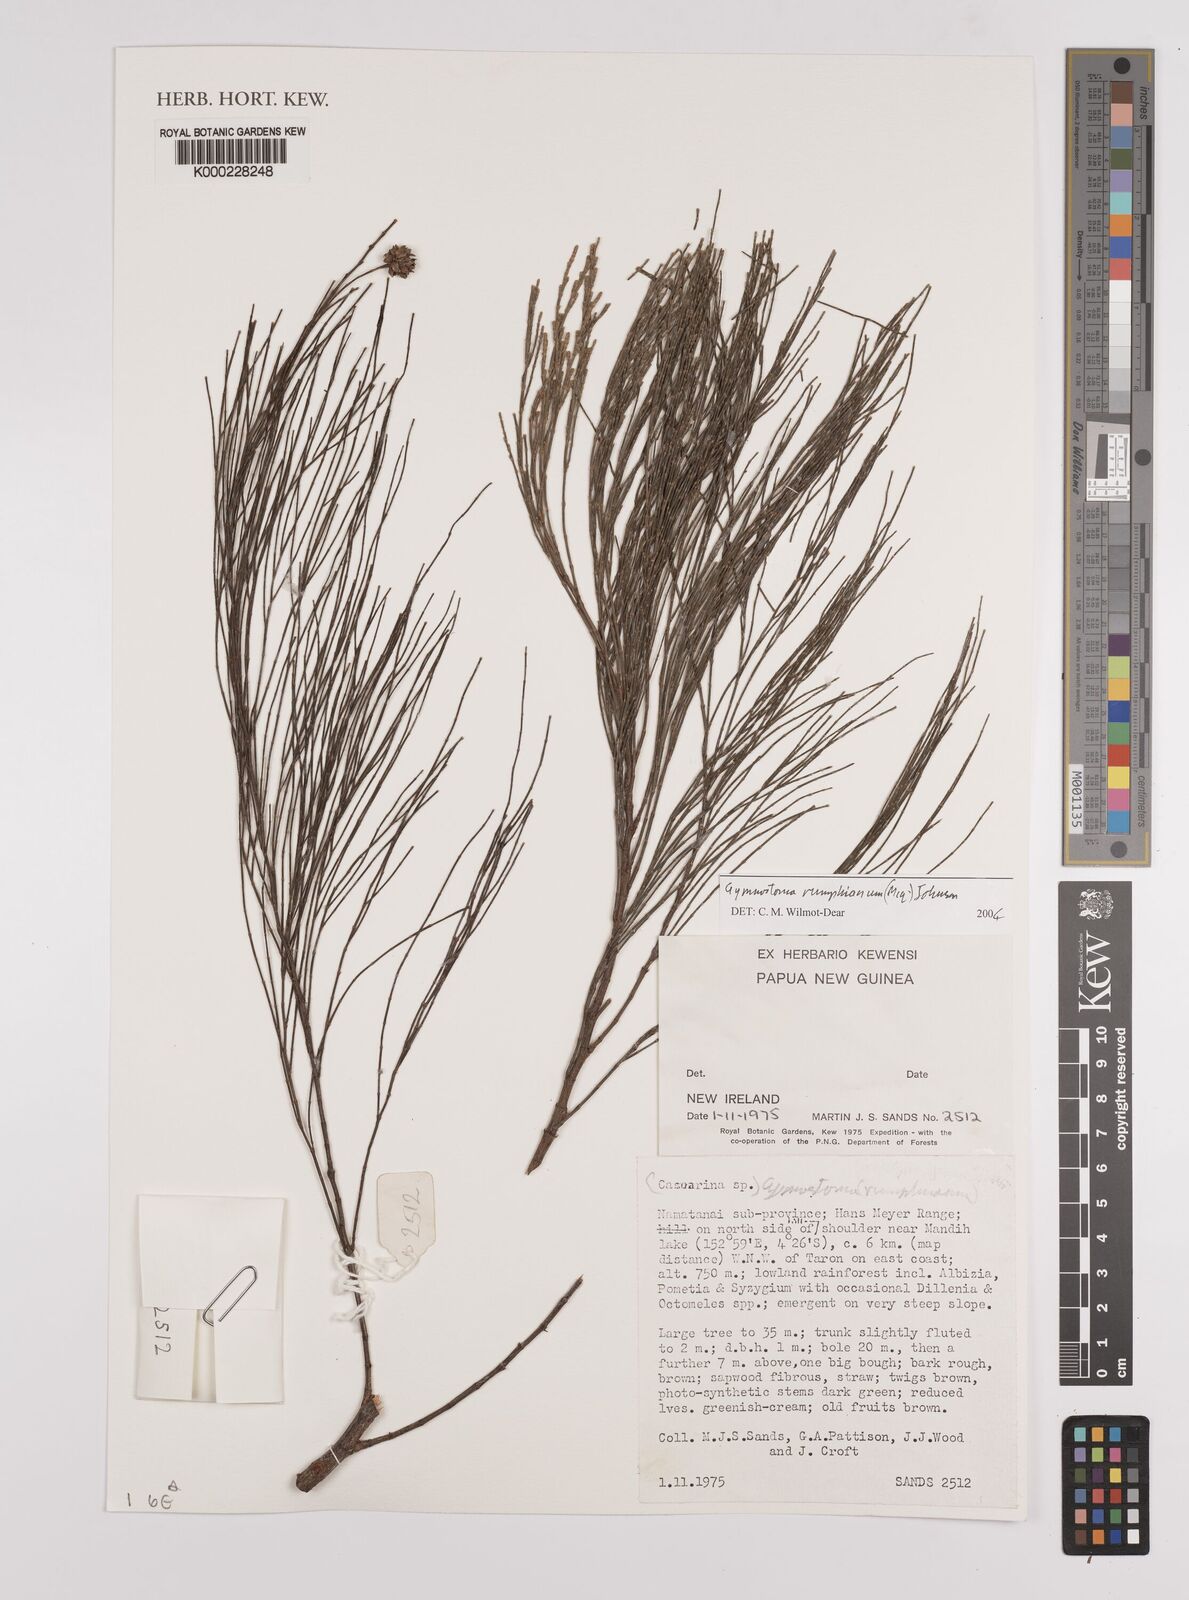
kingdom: Plantae
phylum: Tracheophyta
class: Magnoliopsida
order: Fagales
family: Casuarinaceae
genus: Gymnostoma
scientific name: Gymnostoma rumphianum
